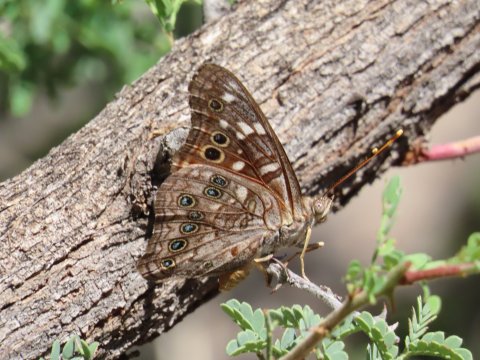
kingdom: Animalia
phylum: Arthropoda
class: Insecta
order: Lepidoptera
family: Nymphalidae
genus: Asterocampa
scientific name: Asterocampa leilia
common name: Empress Leilia
